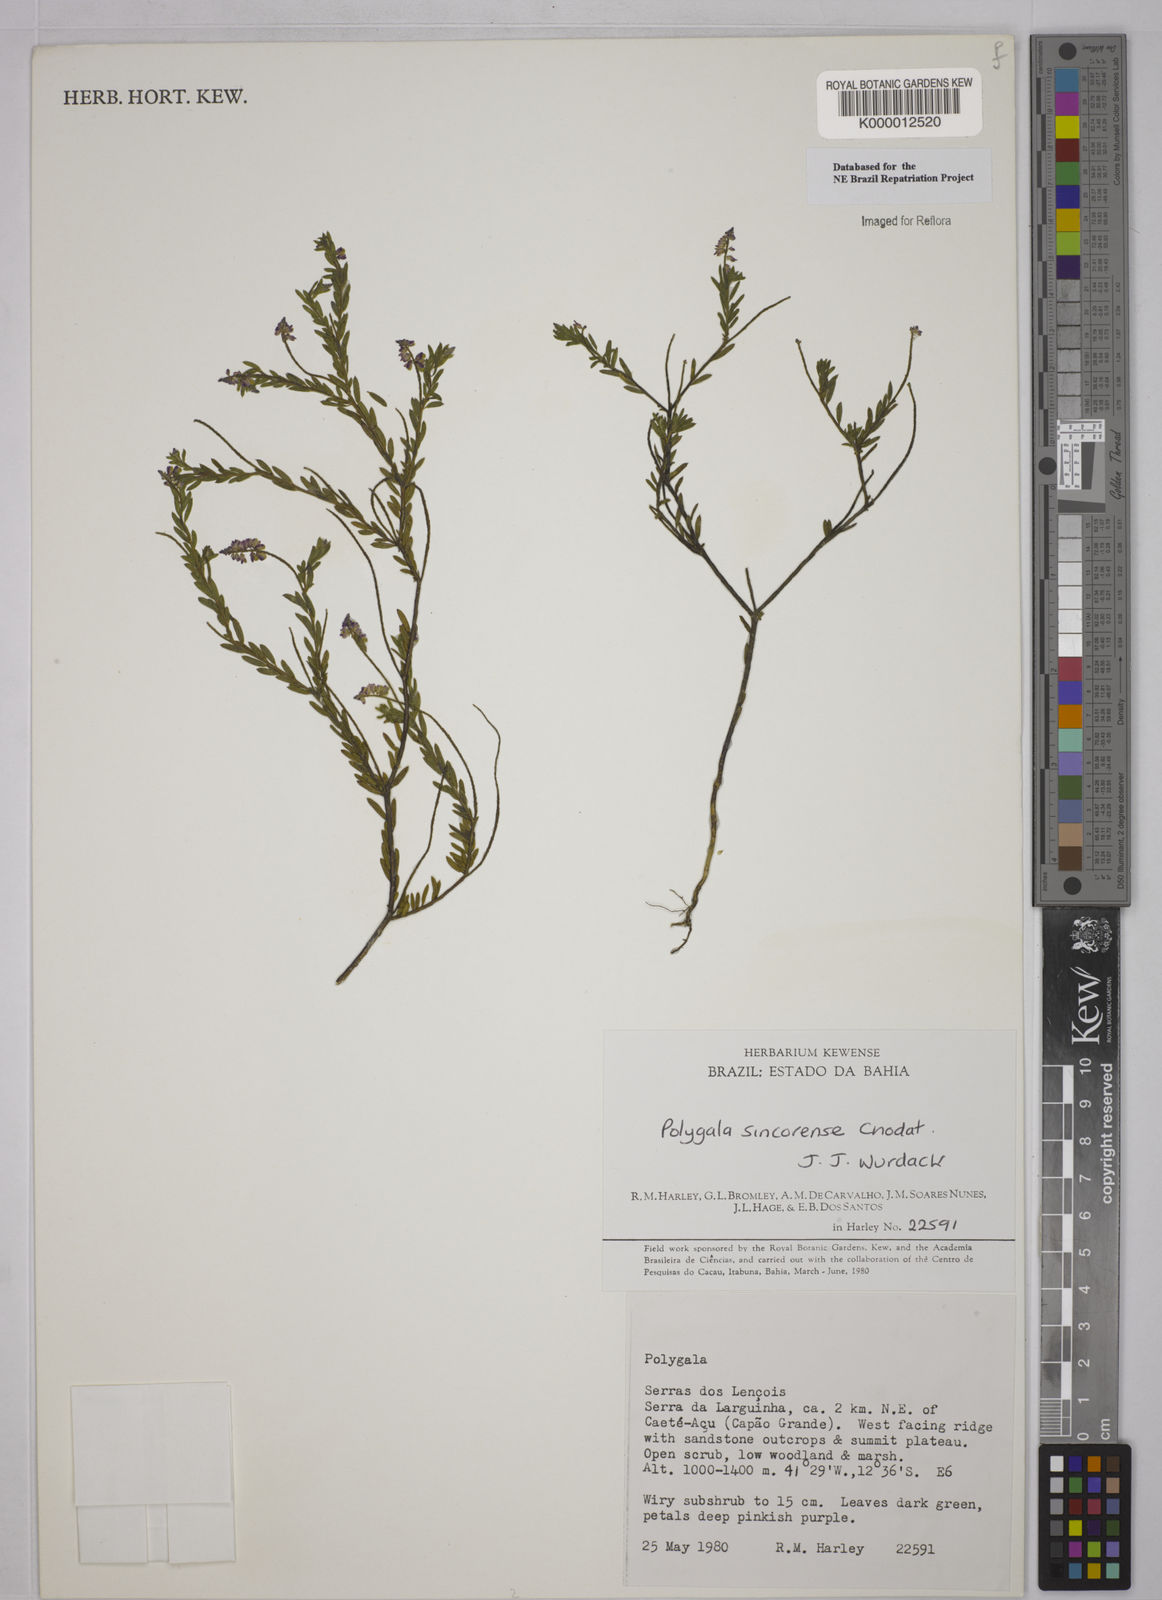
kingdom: Plantae
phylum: Tracheophyta
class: Magnoliopsida
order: Fabales
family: Polygalaceae
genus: Polygala
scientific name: Polygala sincorensis
